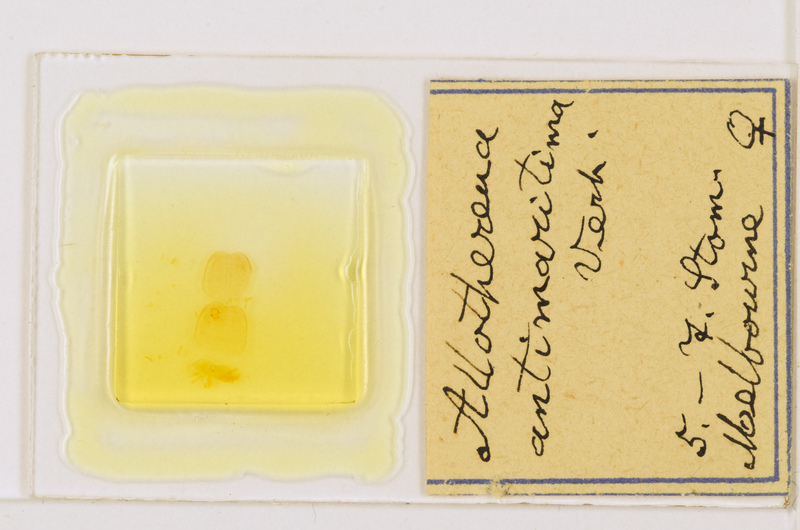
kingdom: Animalia
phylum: Arthropoda
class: Chilopoda
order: Scutigeromorpha
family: Scutigeridae
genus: Allothereua
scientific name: Allothereua
